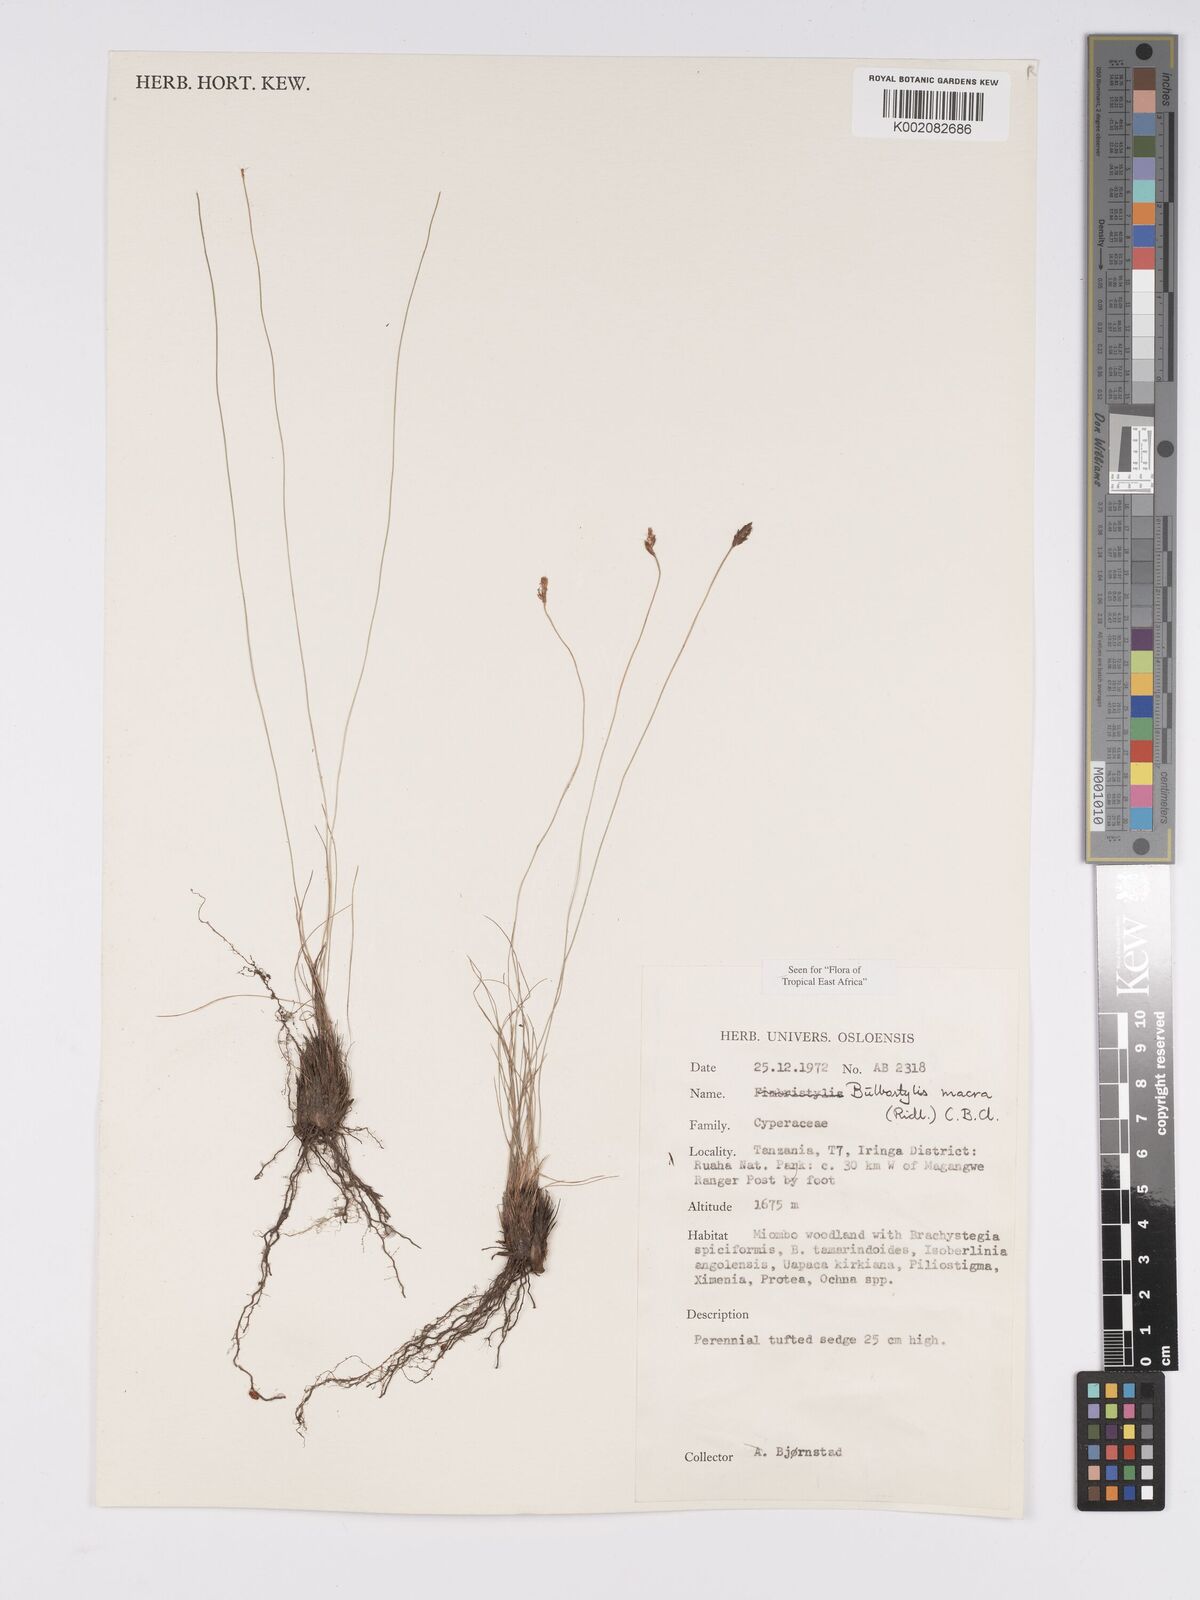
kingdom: Plantae
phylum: Tracheophyta
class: Liliopsida
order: Poales
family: Cyperaceae
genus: Bulbostylis
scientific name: Bulbostylis macra
